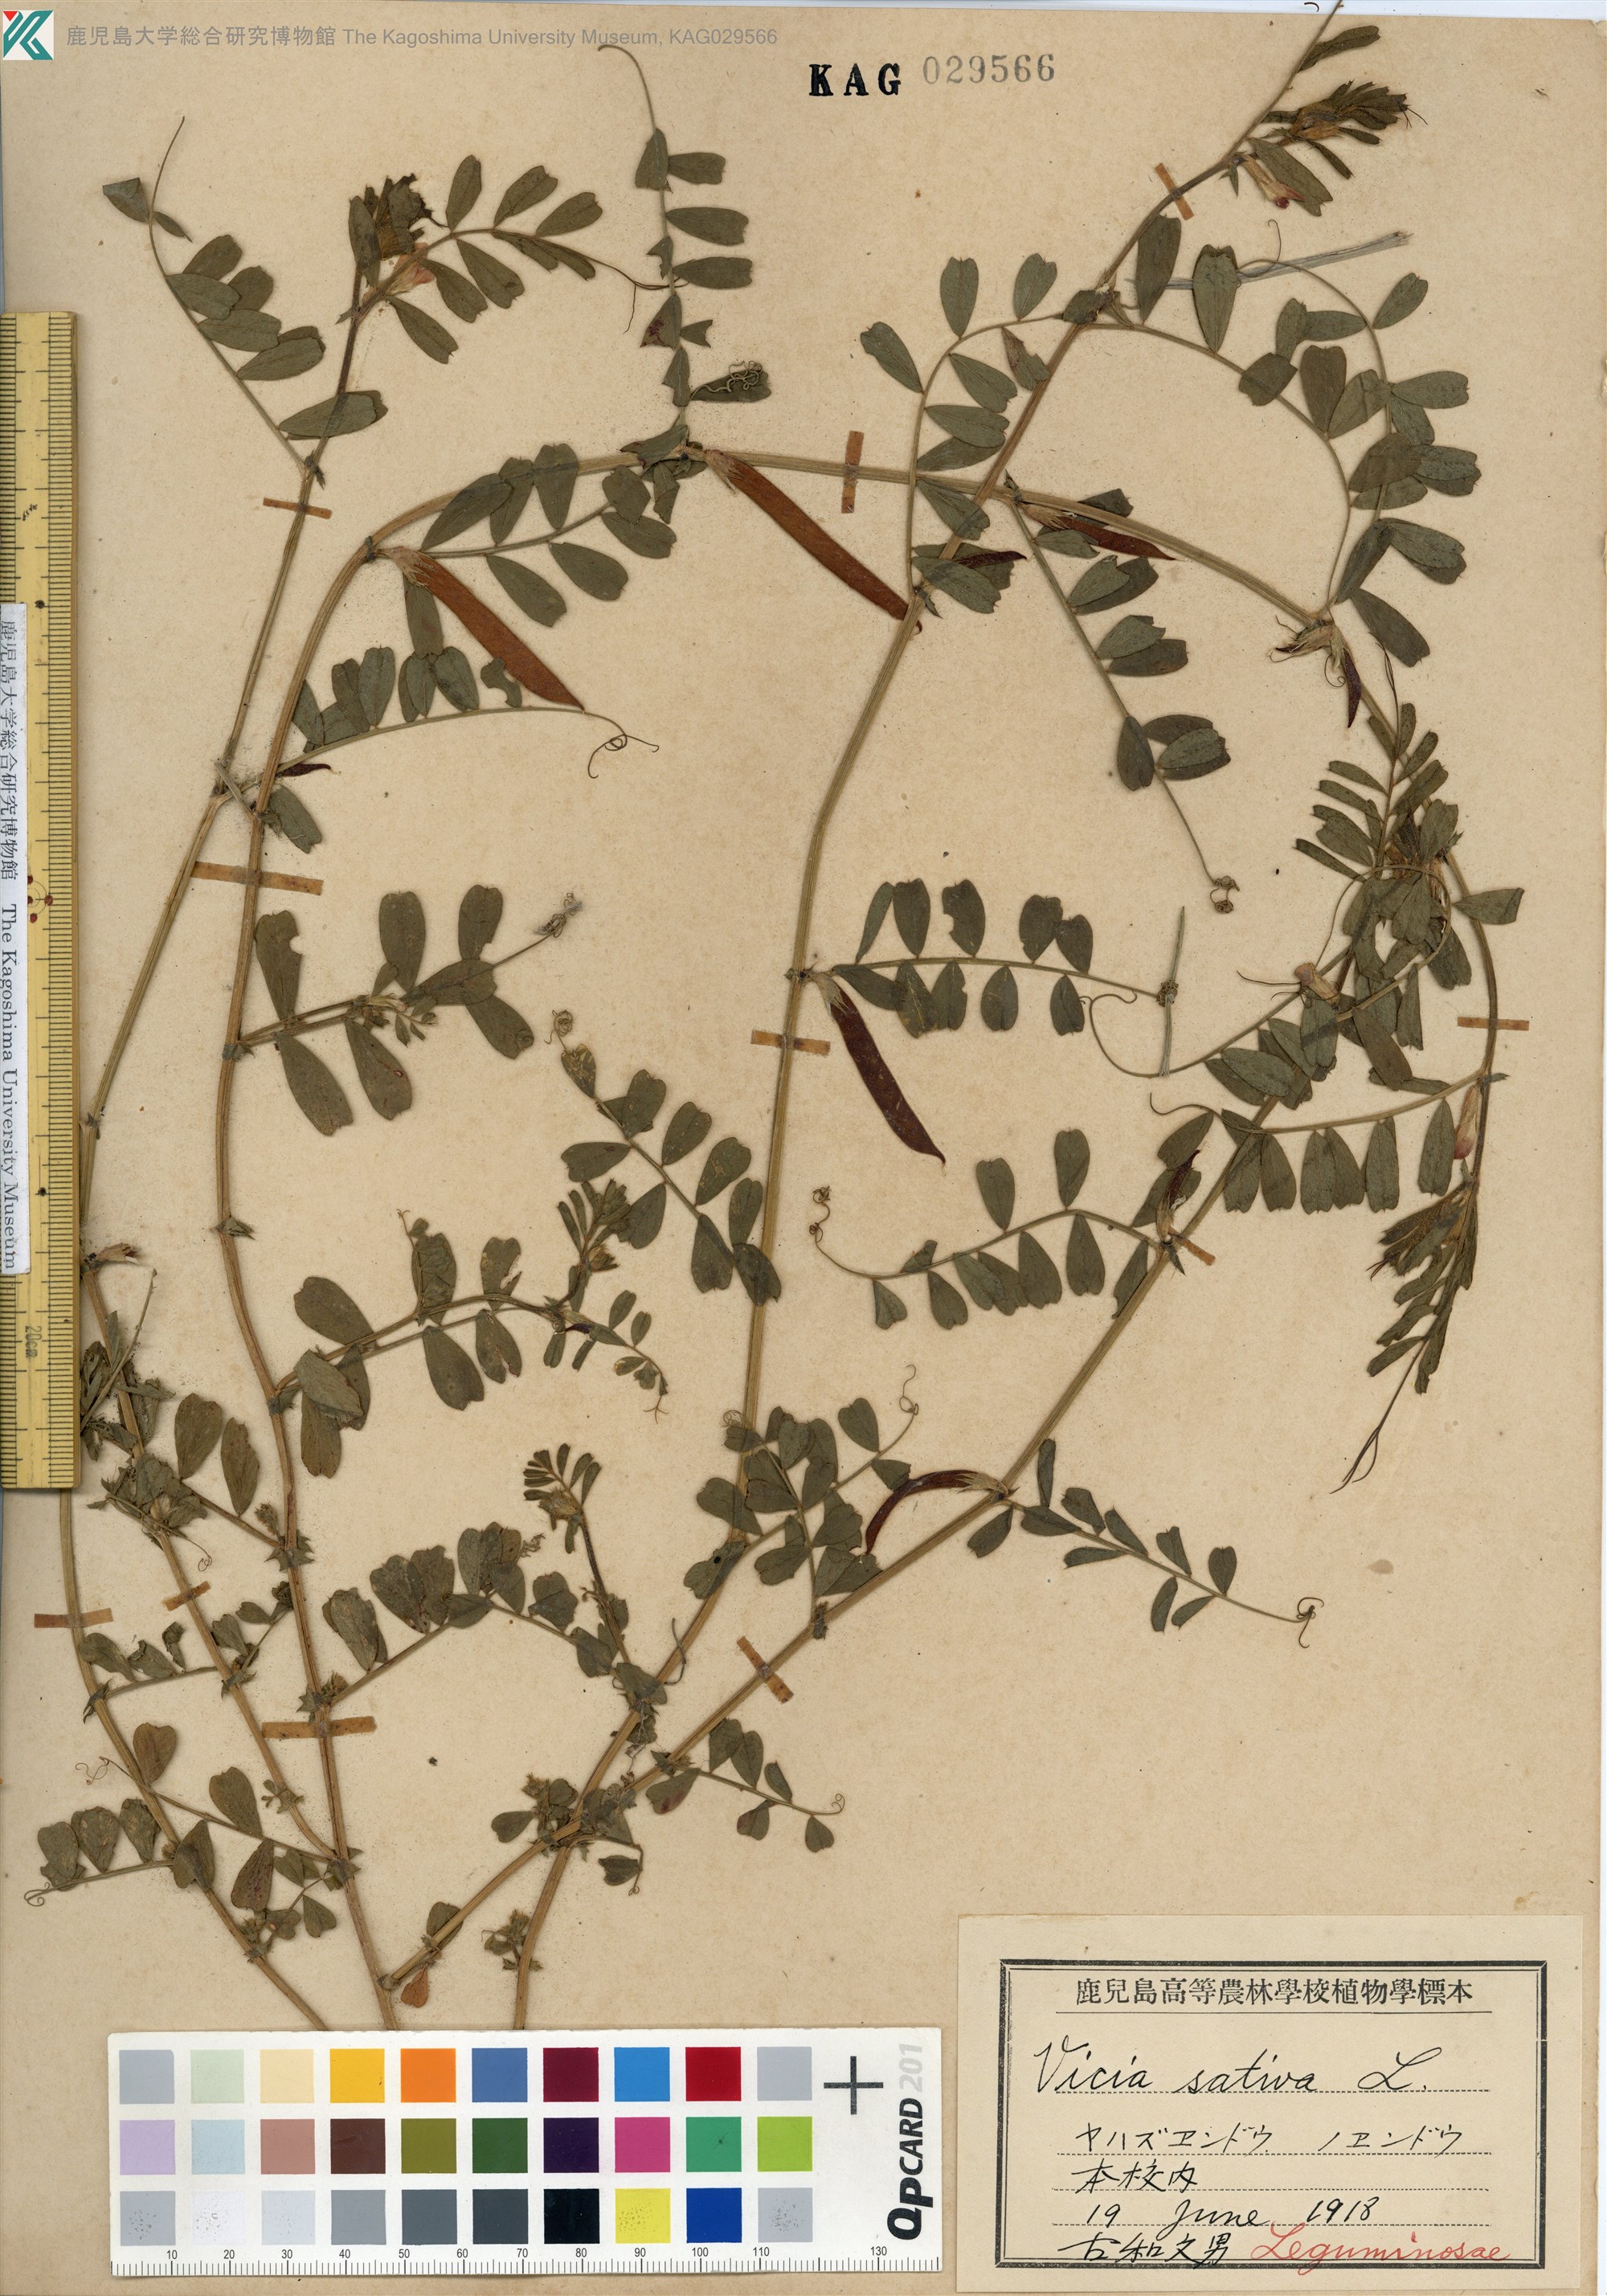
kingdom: Plantae
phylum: Tracheophyta
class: Magnoliopsida
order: Fabales
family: Fabaceae
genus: Vicia
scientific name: Vicia sativa
